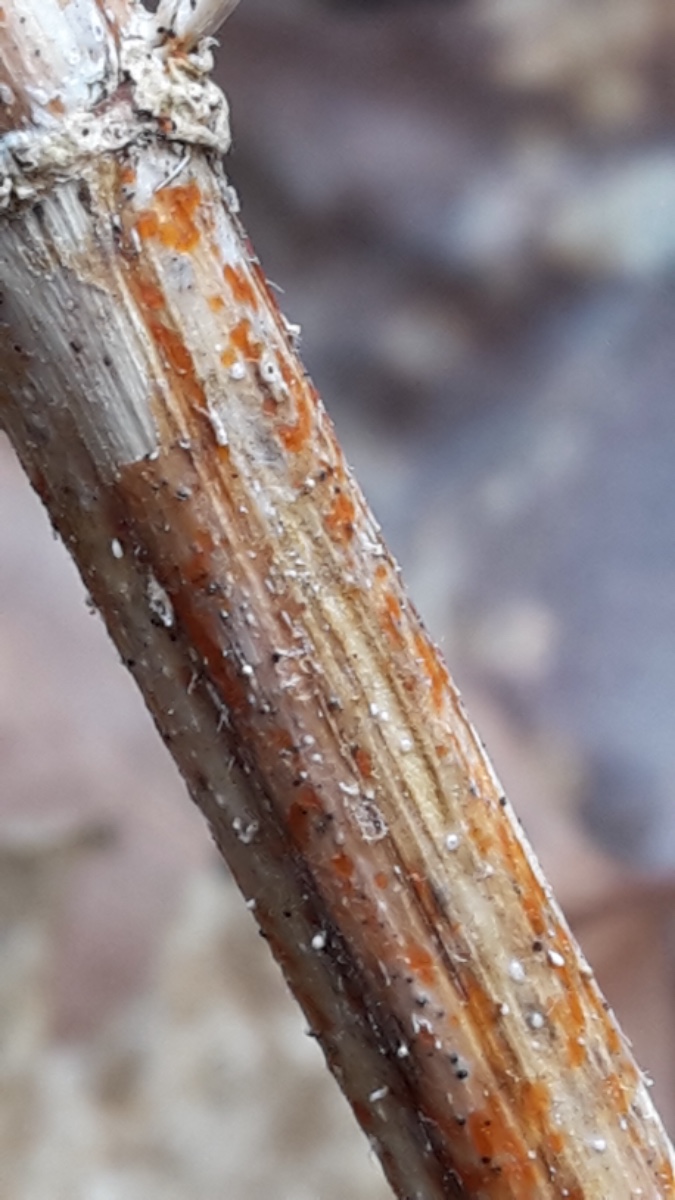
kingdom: Fungi
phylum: Ascomycota
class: Leotiomycetes
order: Helotiales
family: Calloriaceae
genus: Calloria
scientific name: Calloria urticae
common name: nælde-orangeskive
